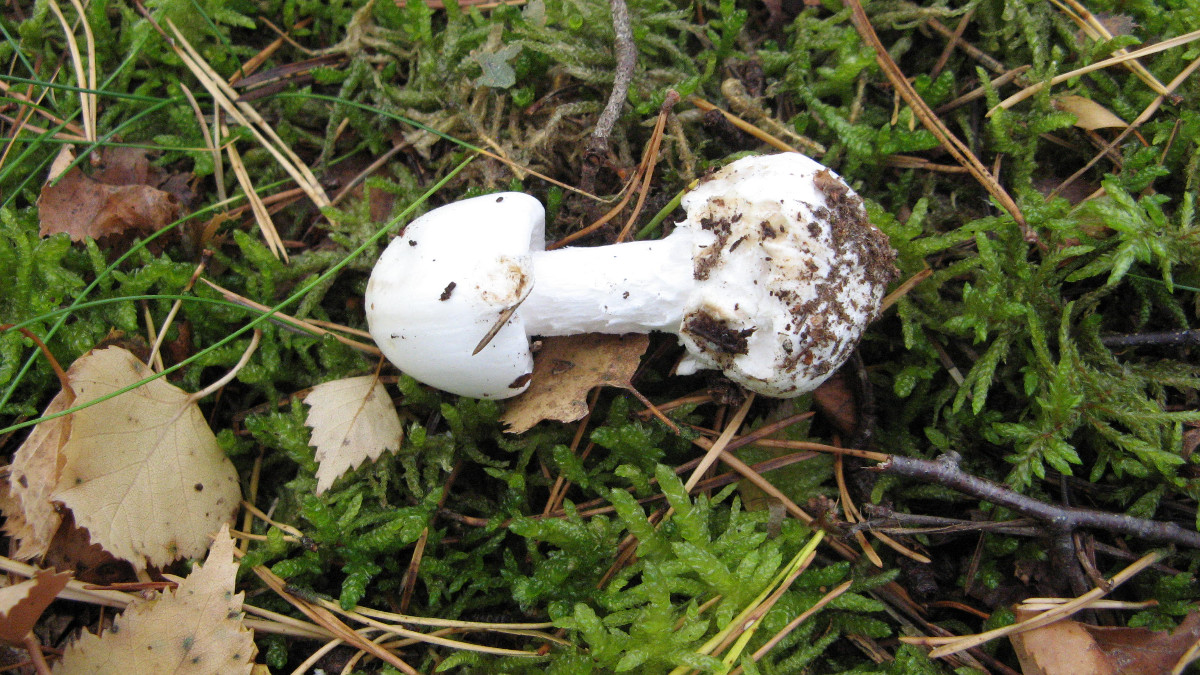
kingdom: Fungi
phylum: Basidiomycota
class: Agaricomycetes
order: Agaricales
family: Amanitaceae
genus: Amanita
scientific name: Amanita virosa
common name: snehvid fluesvamp
